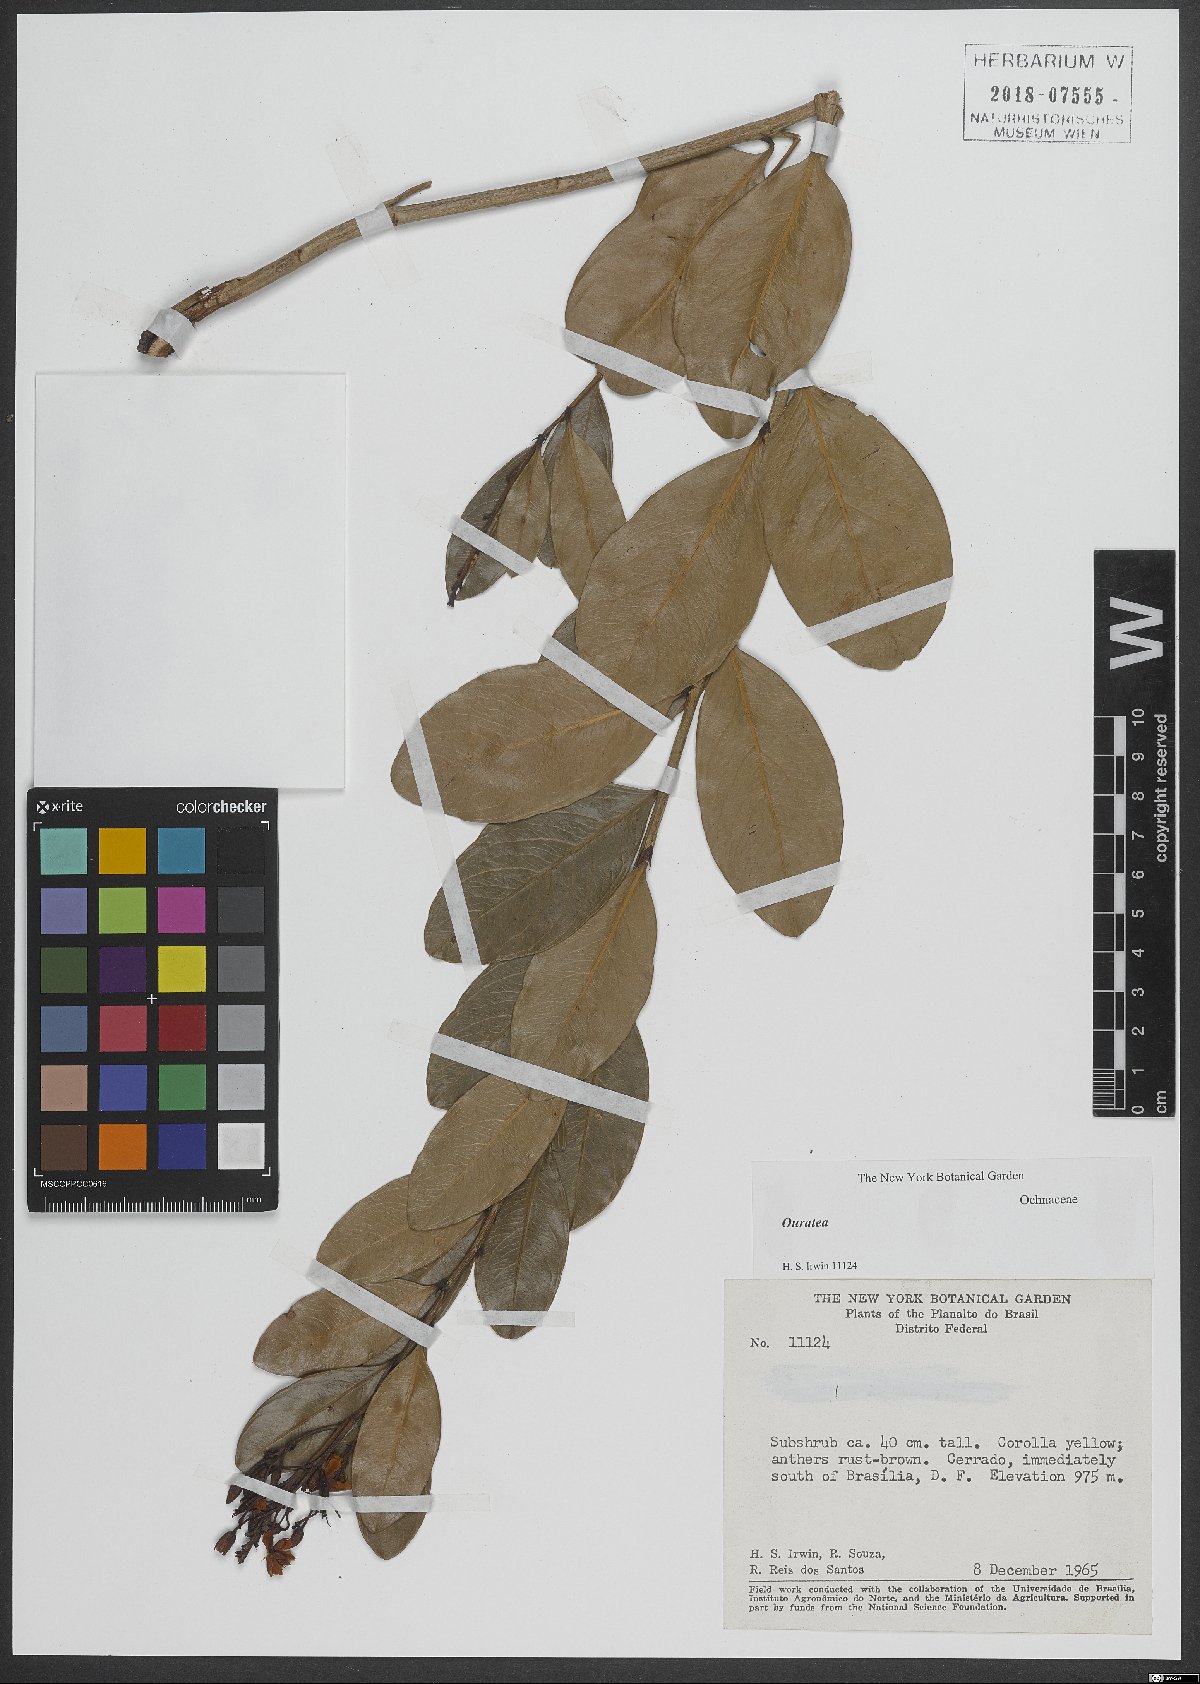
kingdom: Plantae
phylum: Tracheophyta
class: Magnoliopsida
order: Malpighiales
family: Ochnaceae
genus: Ouratea
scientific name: Ouratea
